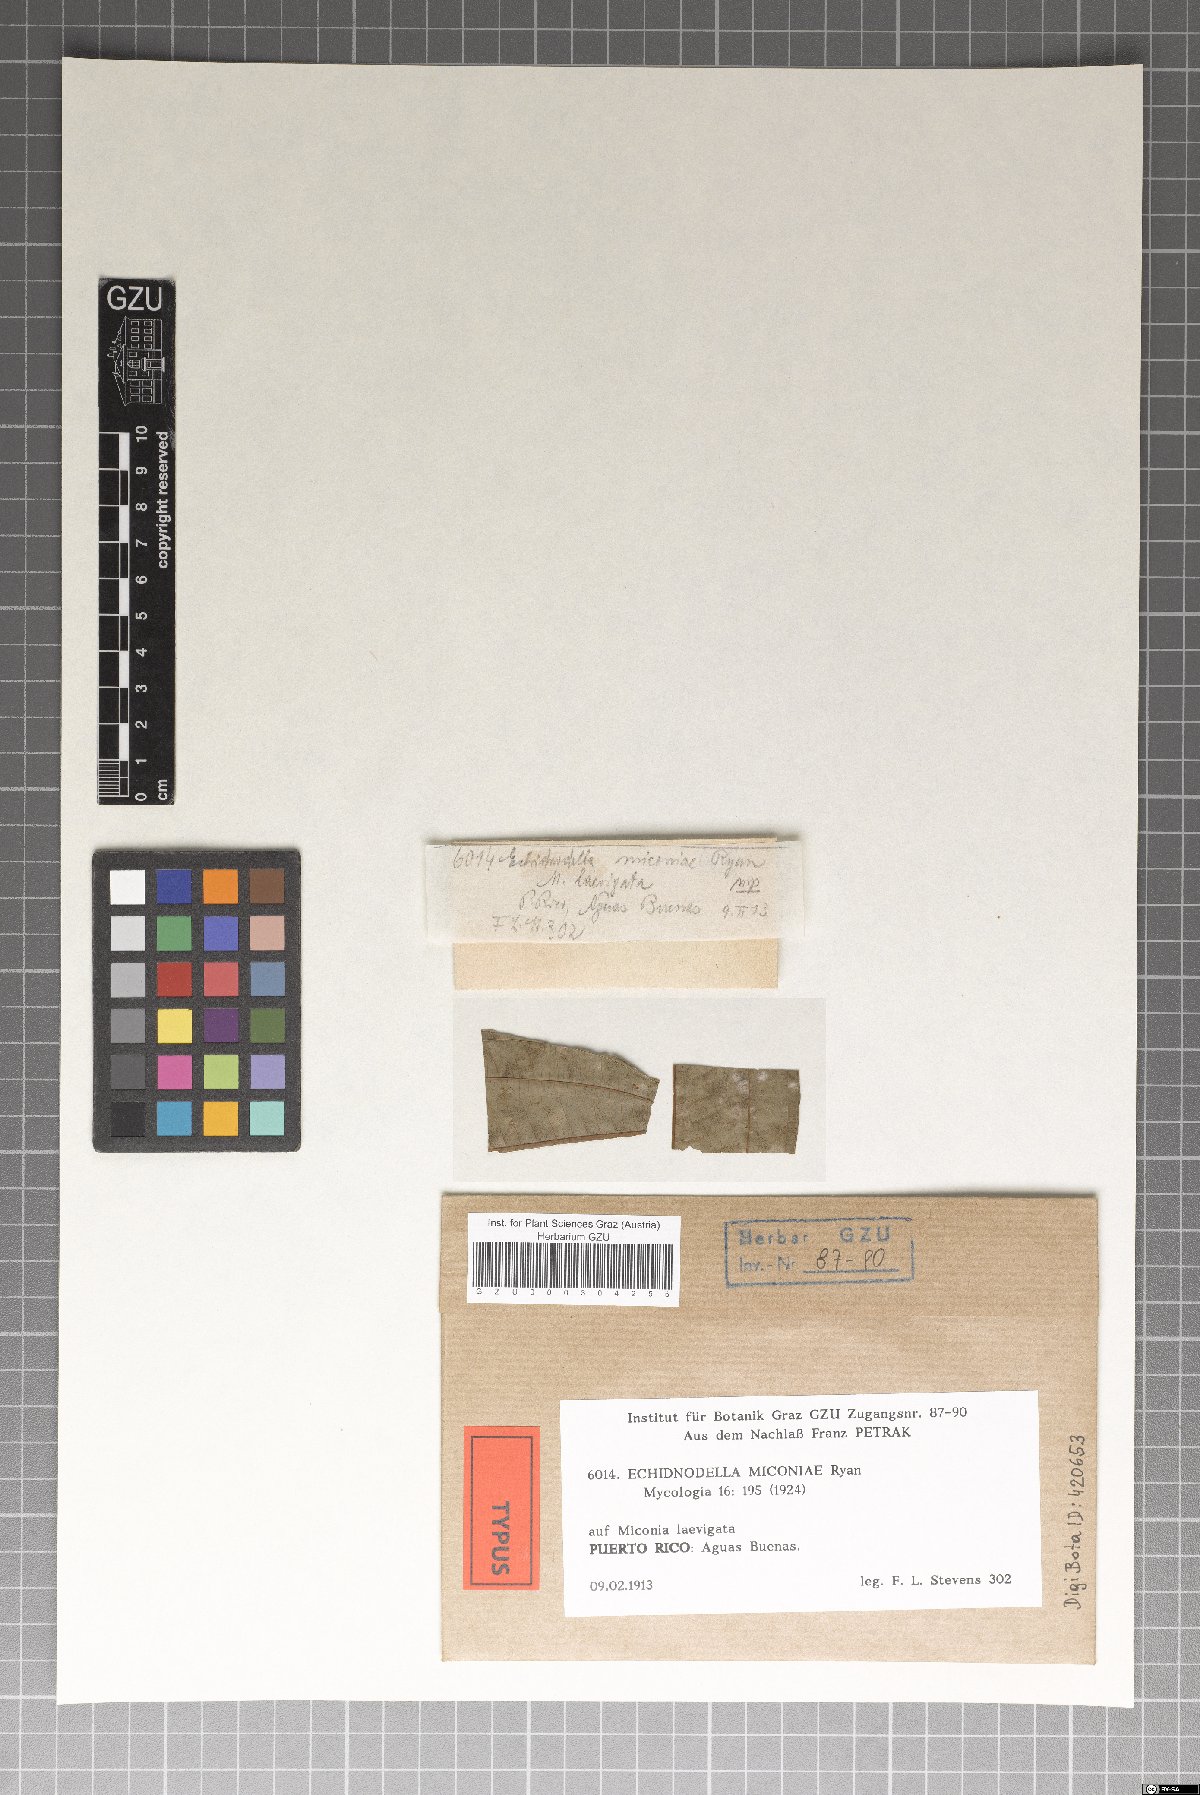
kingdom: Fungi
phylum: Ascomycota
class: Dothideomycetes
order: Asterinales
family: Asterinaceae
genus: Echidnodella
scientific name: Echidnodella miconiae
